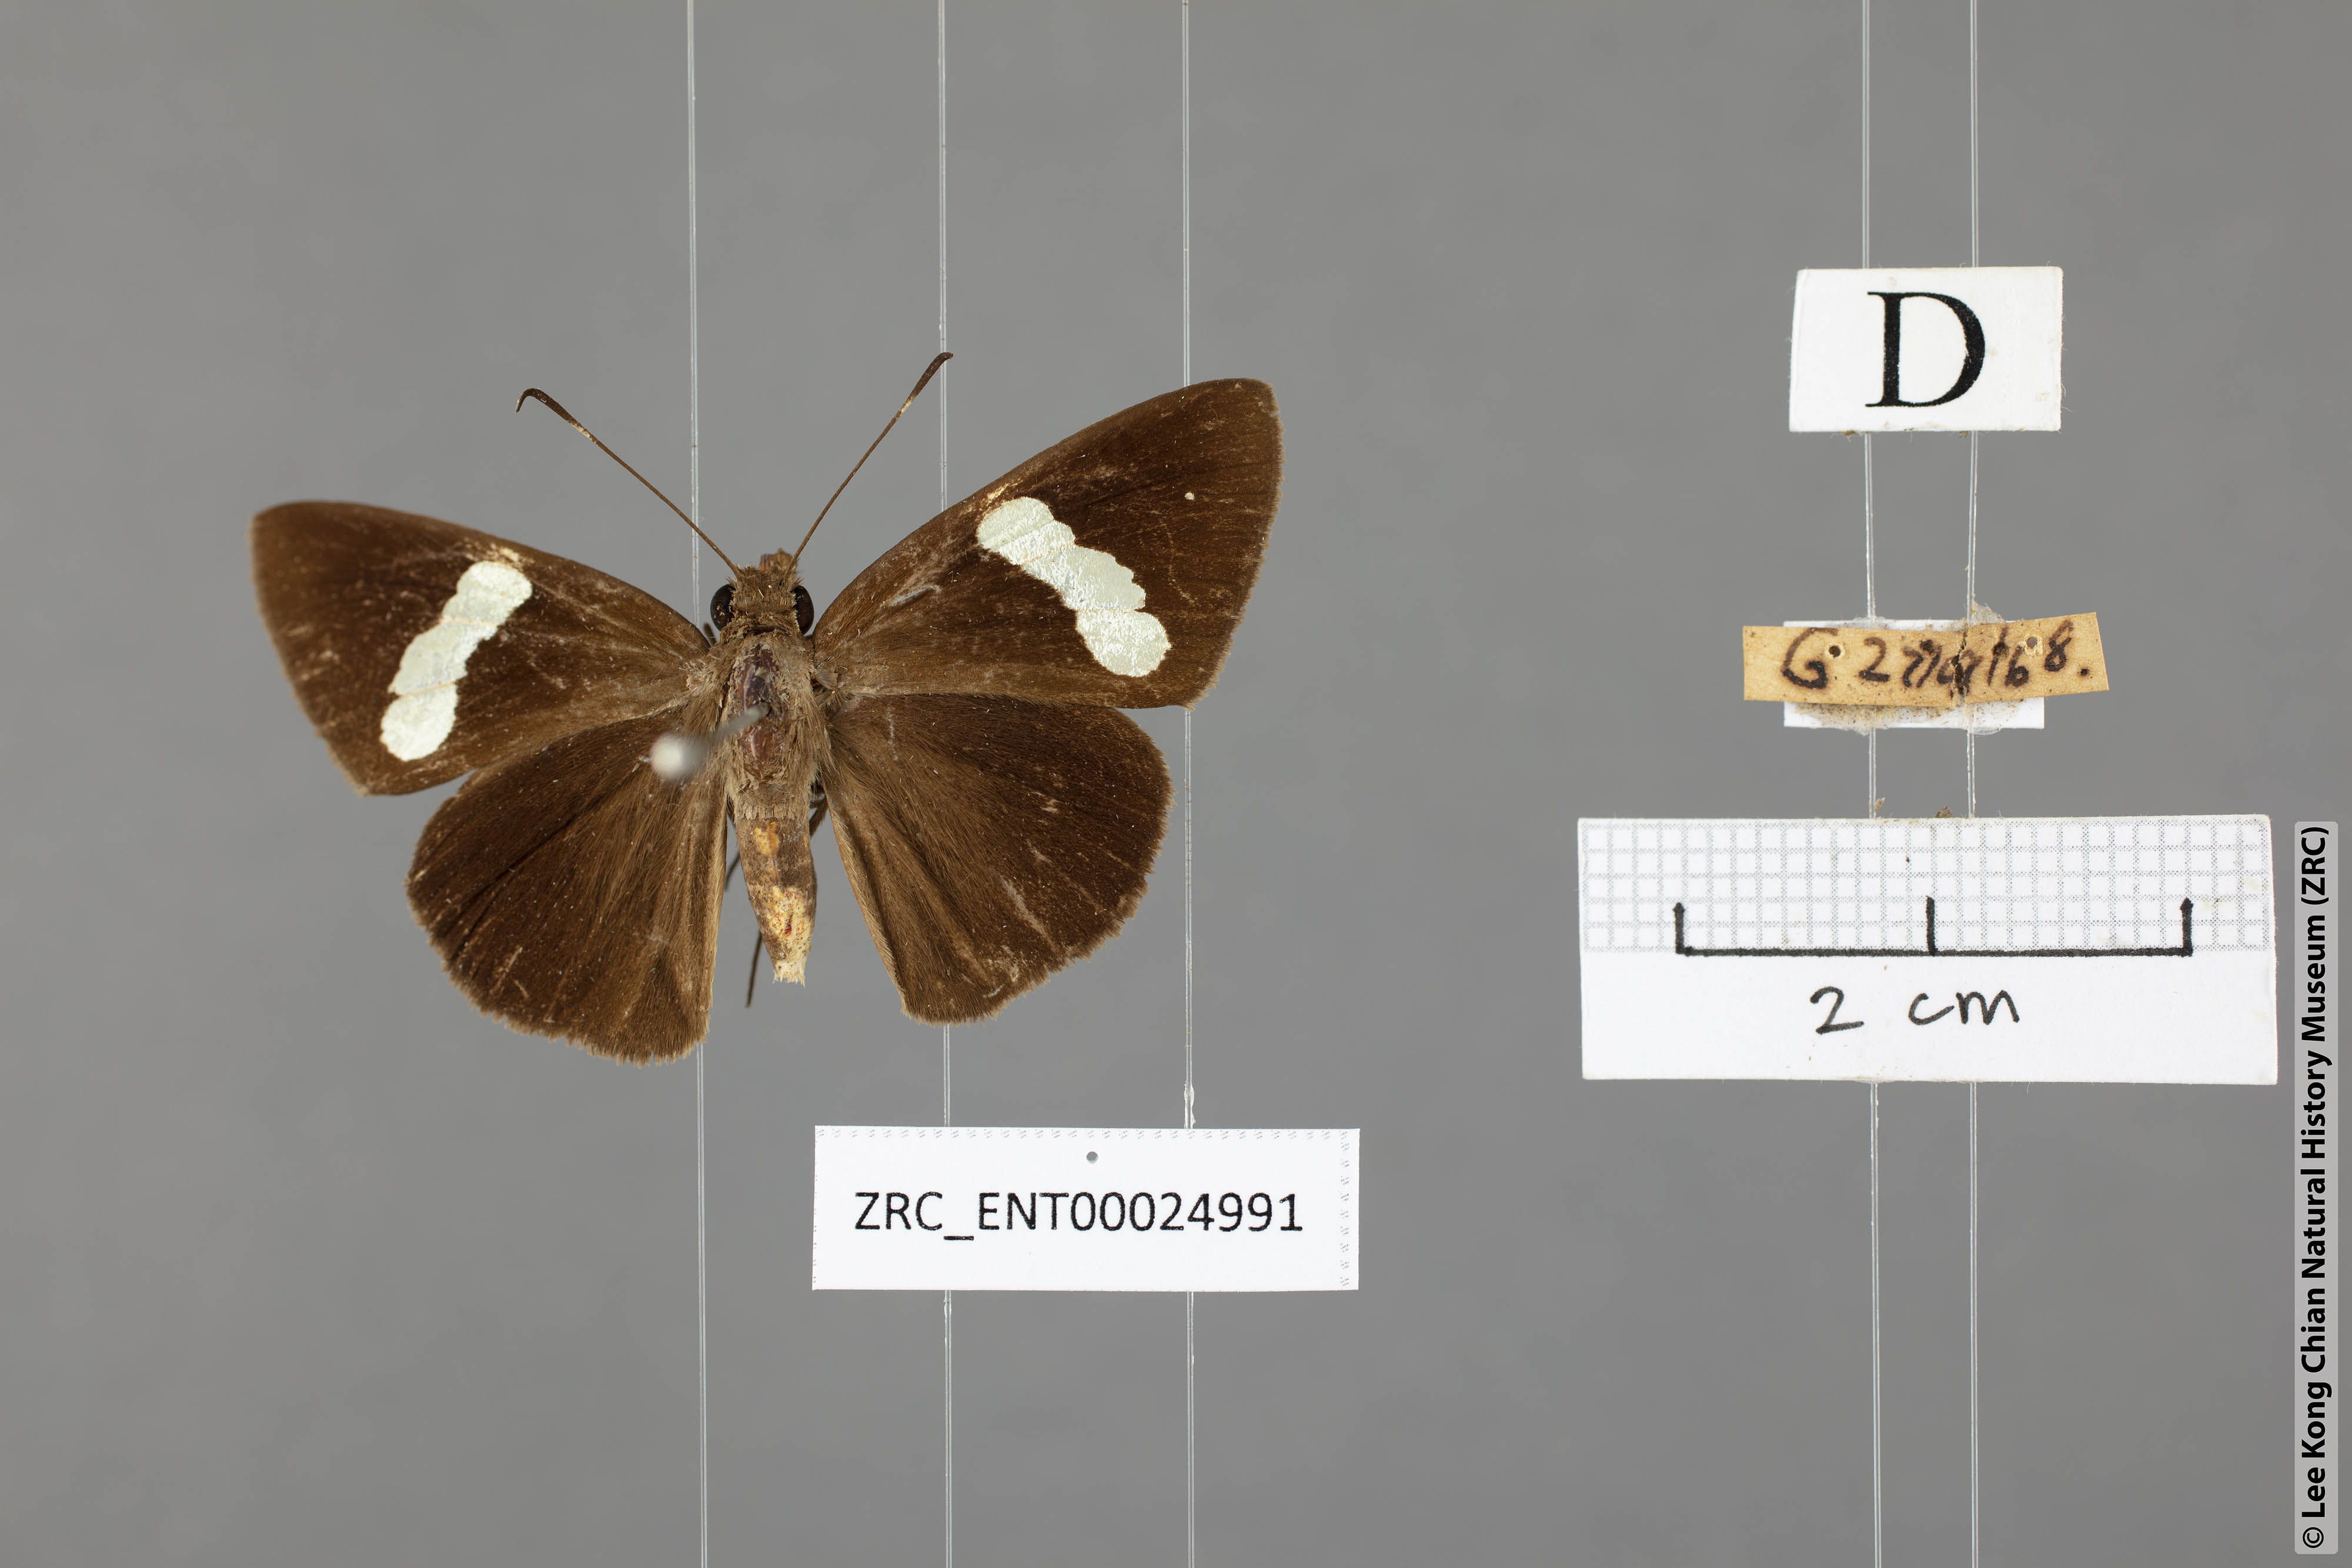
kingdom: Animalia
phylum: Arthropoda
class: Insecta
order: Lepidoptera
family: Hesperiidae
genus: Notocrypta
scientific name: Notocrypta clavata
